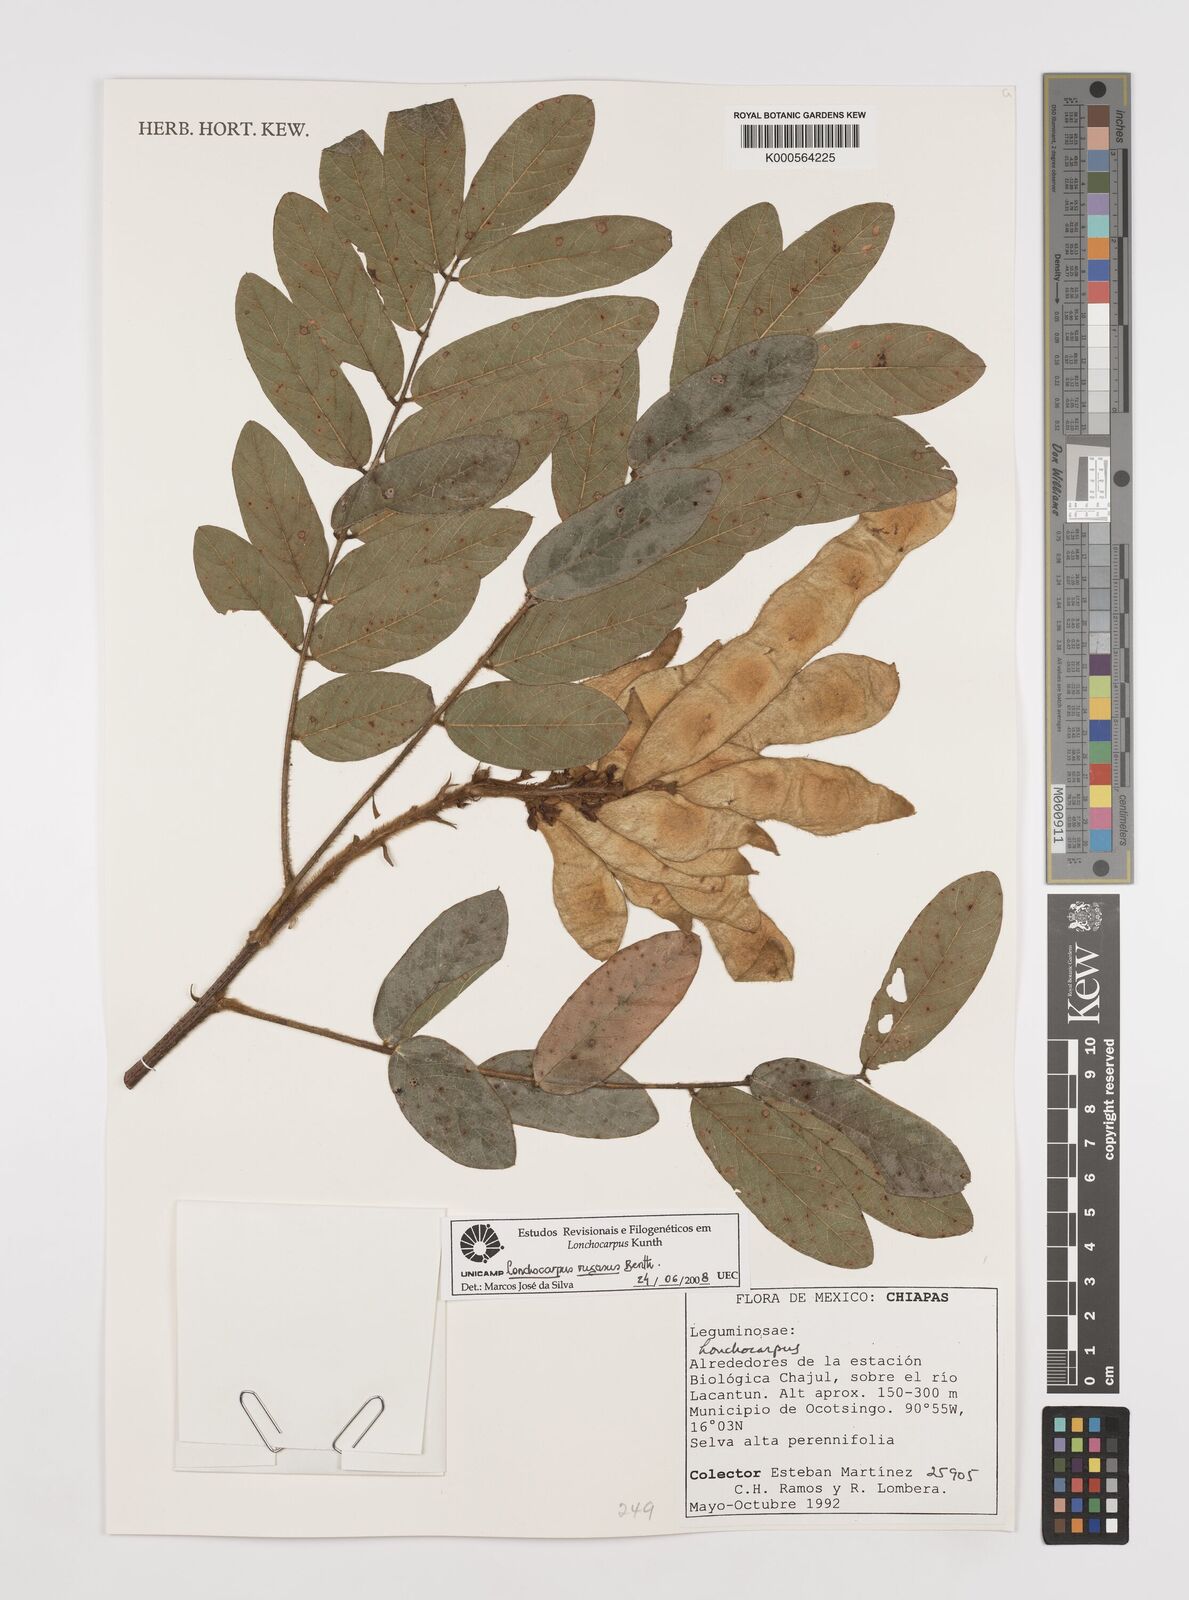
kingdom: Plantae
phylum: Tracheophyta
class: Magnoliopsida
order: Fabales
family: Fabaceae
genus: Lonchocarpus
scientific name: Lonchocarpus rugosus
